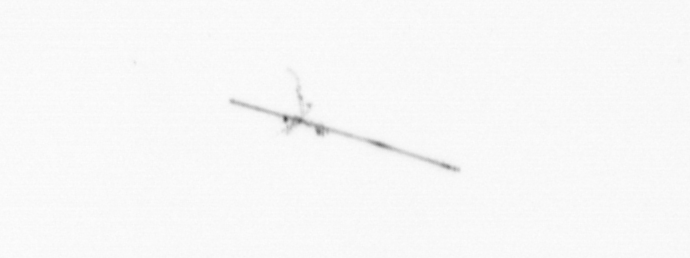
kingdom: Chromista
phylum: Ochrophyta
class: Bacillariophyceae
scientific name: Bacillariophyceae
